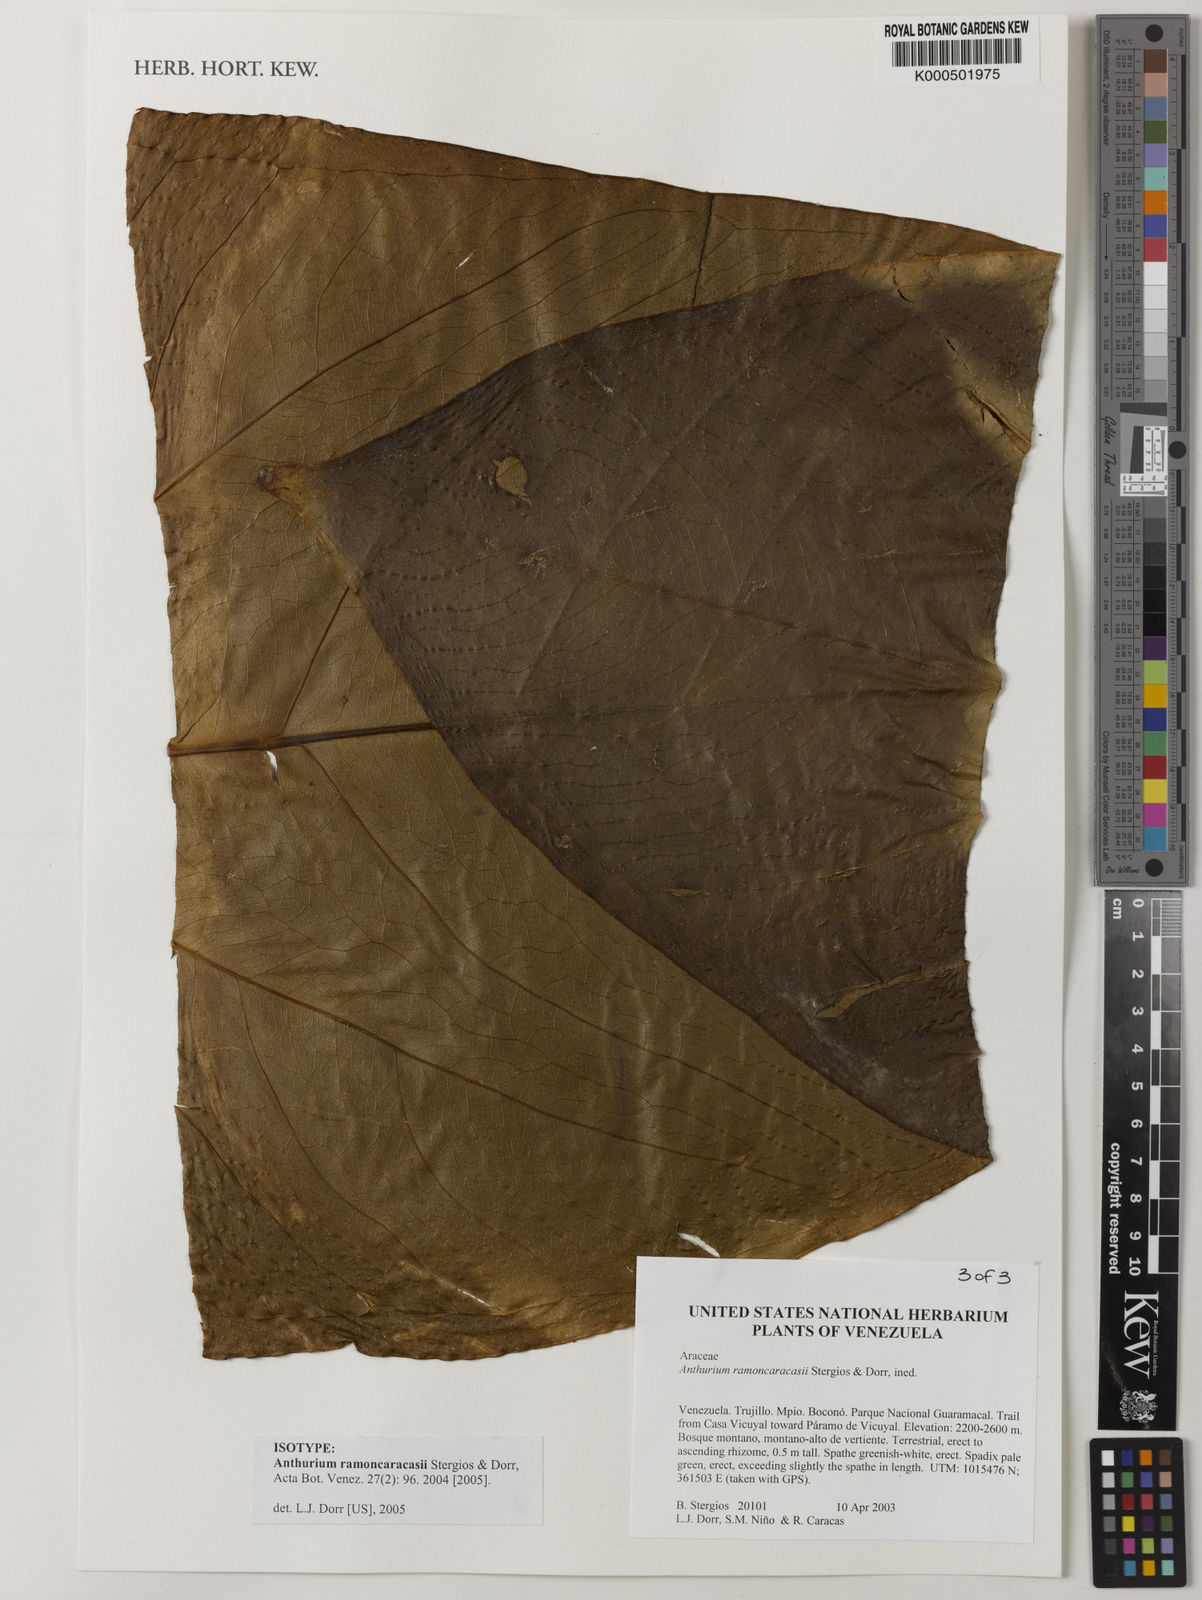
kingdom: Plantae
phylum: Tracheophyta
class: Liliopsida
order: Alismatales
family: Araceae
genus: Anthurium
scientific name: Anthurium ramoncaracasii
